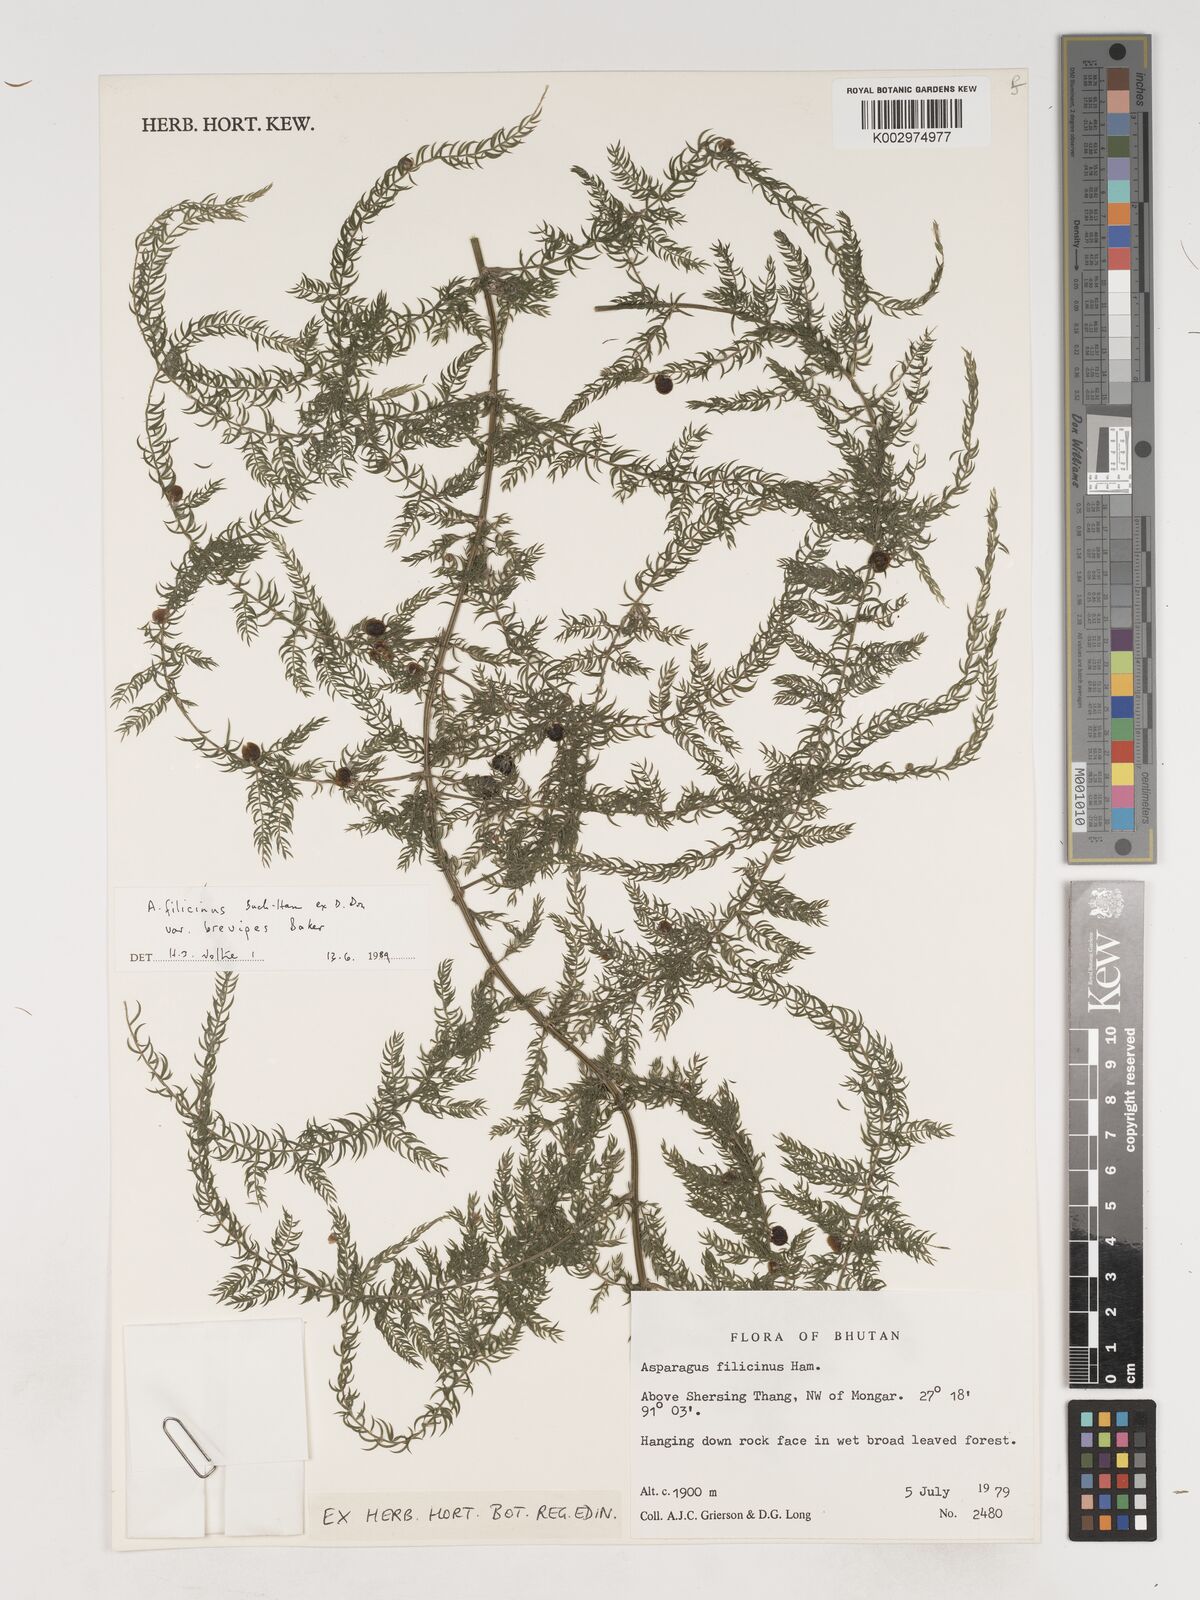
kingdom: Plantae
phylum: Tracheophyta
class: Liliopsida
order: Asparagales
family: Asparagaceae
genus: Asparagus
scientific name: Asparagus filicinus
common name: Fern asparagus
